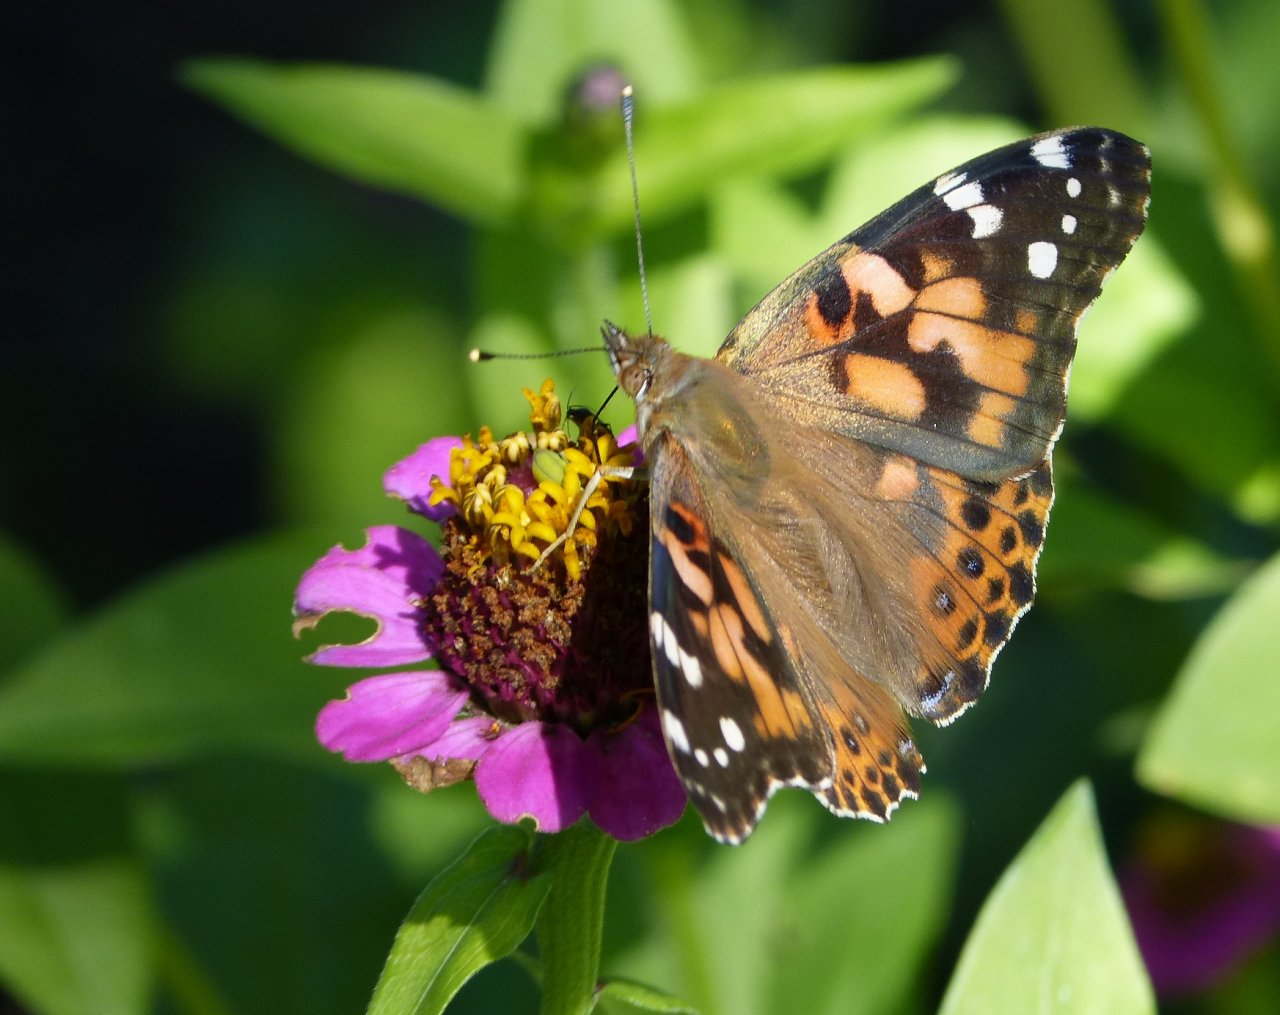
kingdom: Animalia
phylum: Arthropoda
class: Insecta
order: Lepidoptera
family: Nymphalidae
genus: Vanessa
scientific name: Vanessa cardui
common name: Painted Lady
